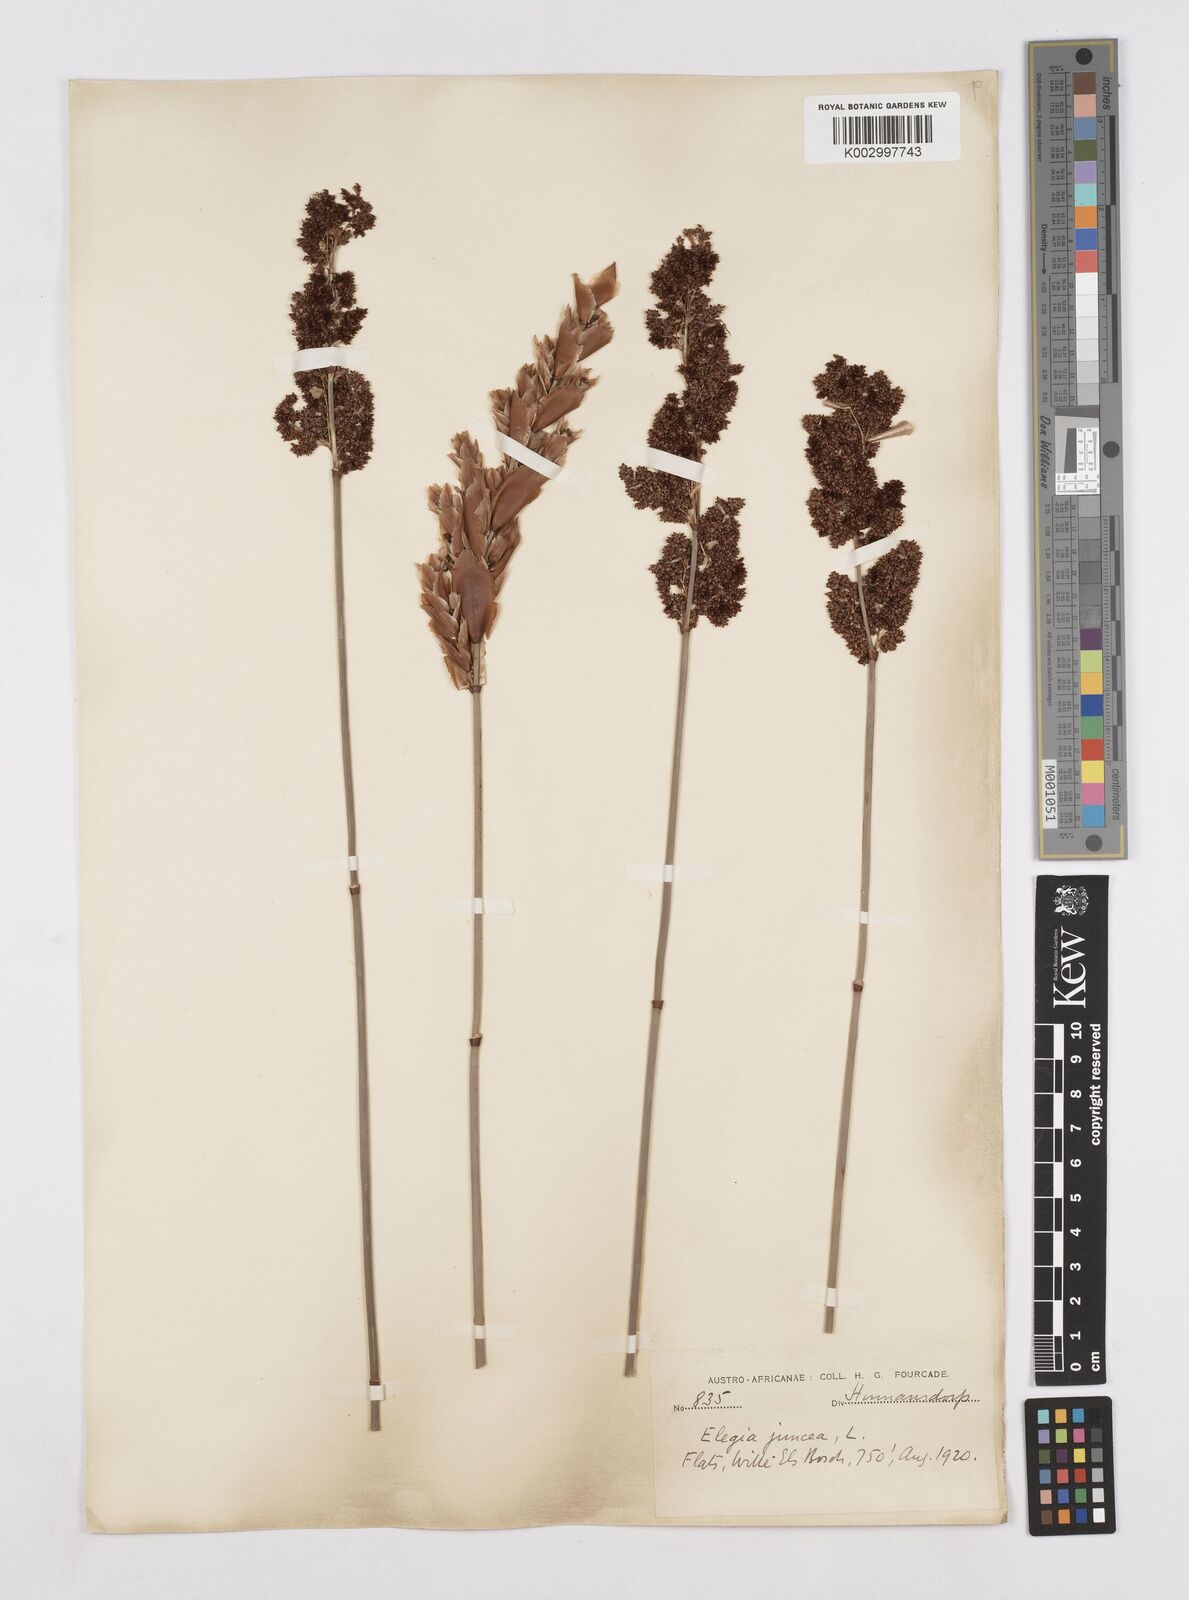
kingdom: Plantae
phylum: Tracheophyta
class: Liliopsida
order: Poales
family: Restionaceae
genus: Elegia
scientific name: Elegia juncea
